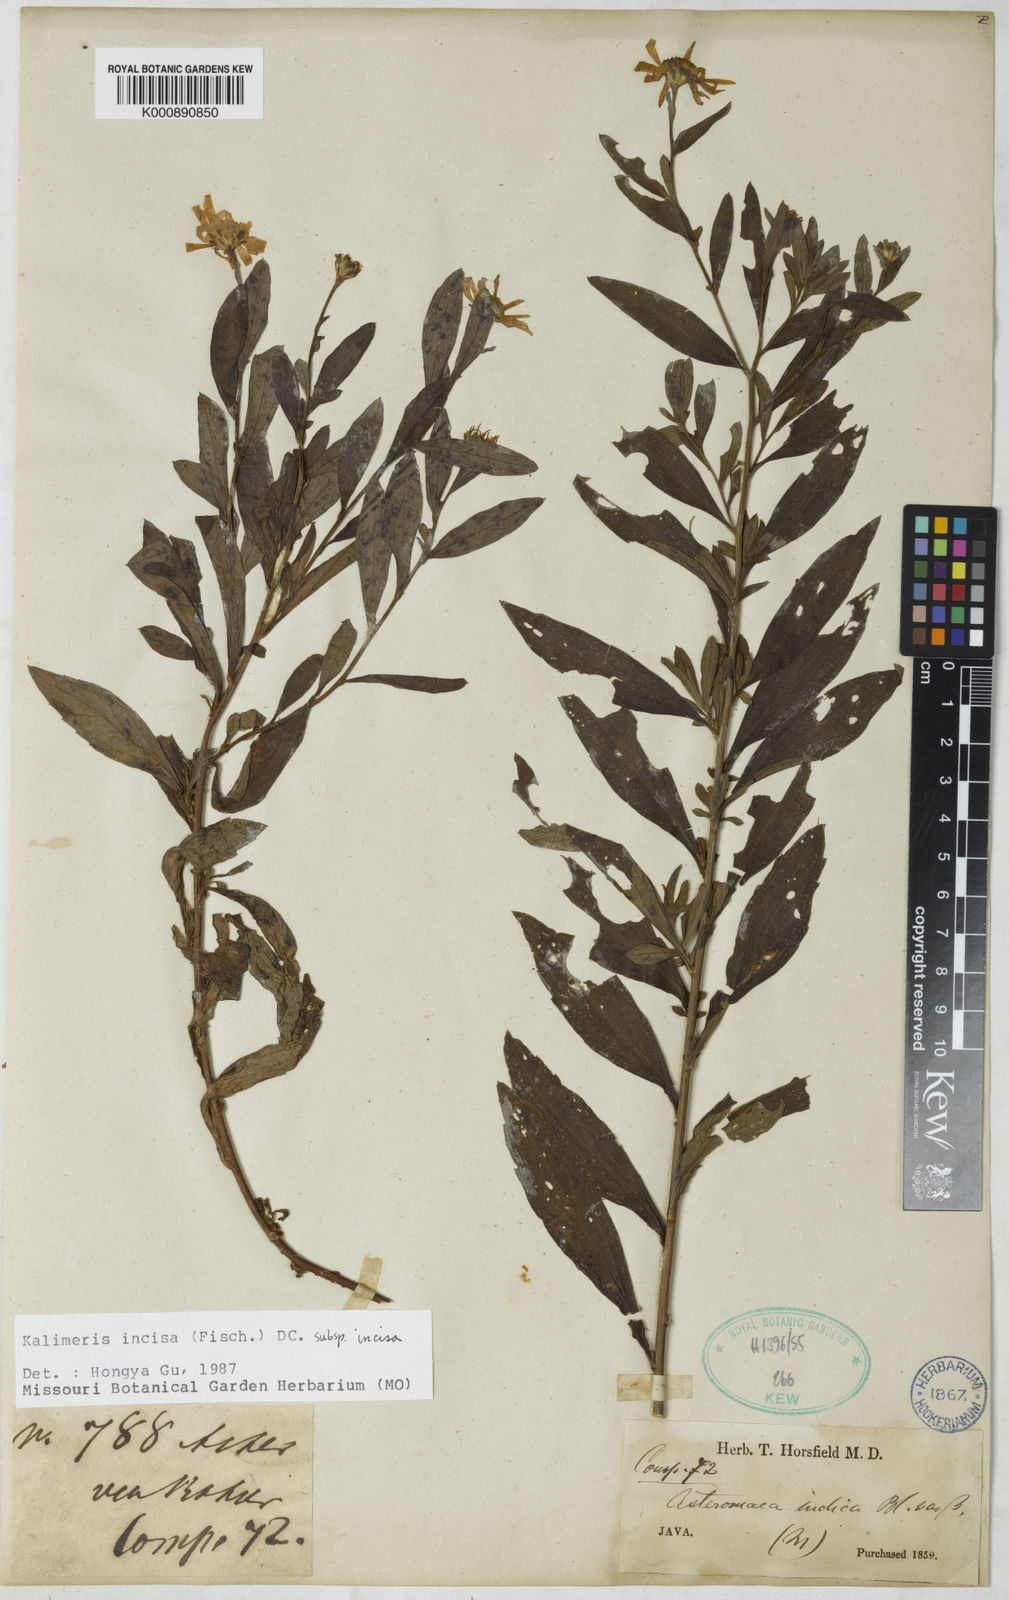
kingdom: Plantae
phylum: Tracheophyta
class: Magnoliopsida
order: Asterales
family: Asteraceae
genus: Kalimeris
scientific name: Kalimeris incisa
